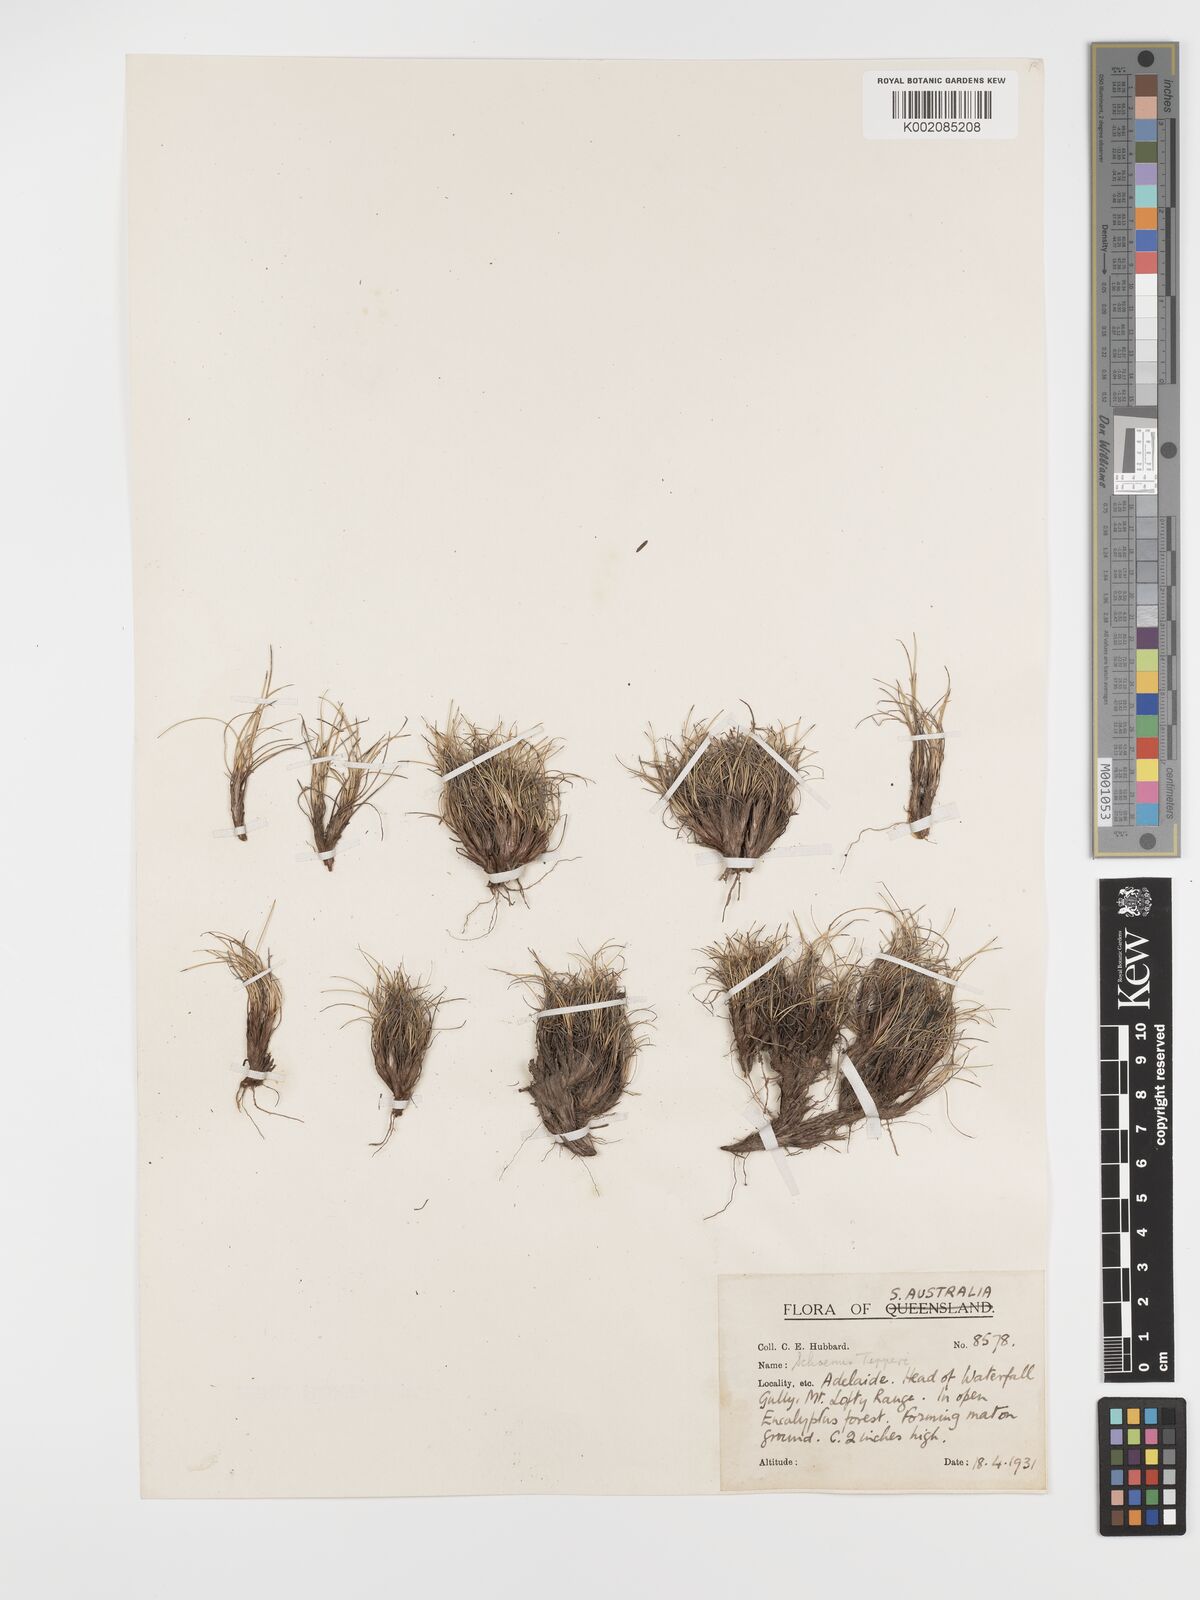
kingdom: Plantae
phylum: Tracheophyta
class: Liliopsida
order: Poales
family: Cyperaceae
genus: Schoenus
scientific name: Schoenus trachycarpus
